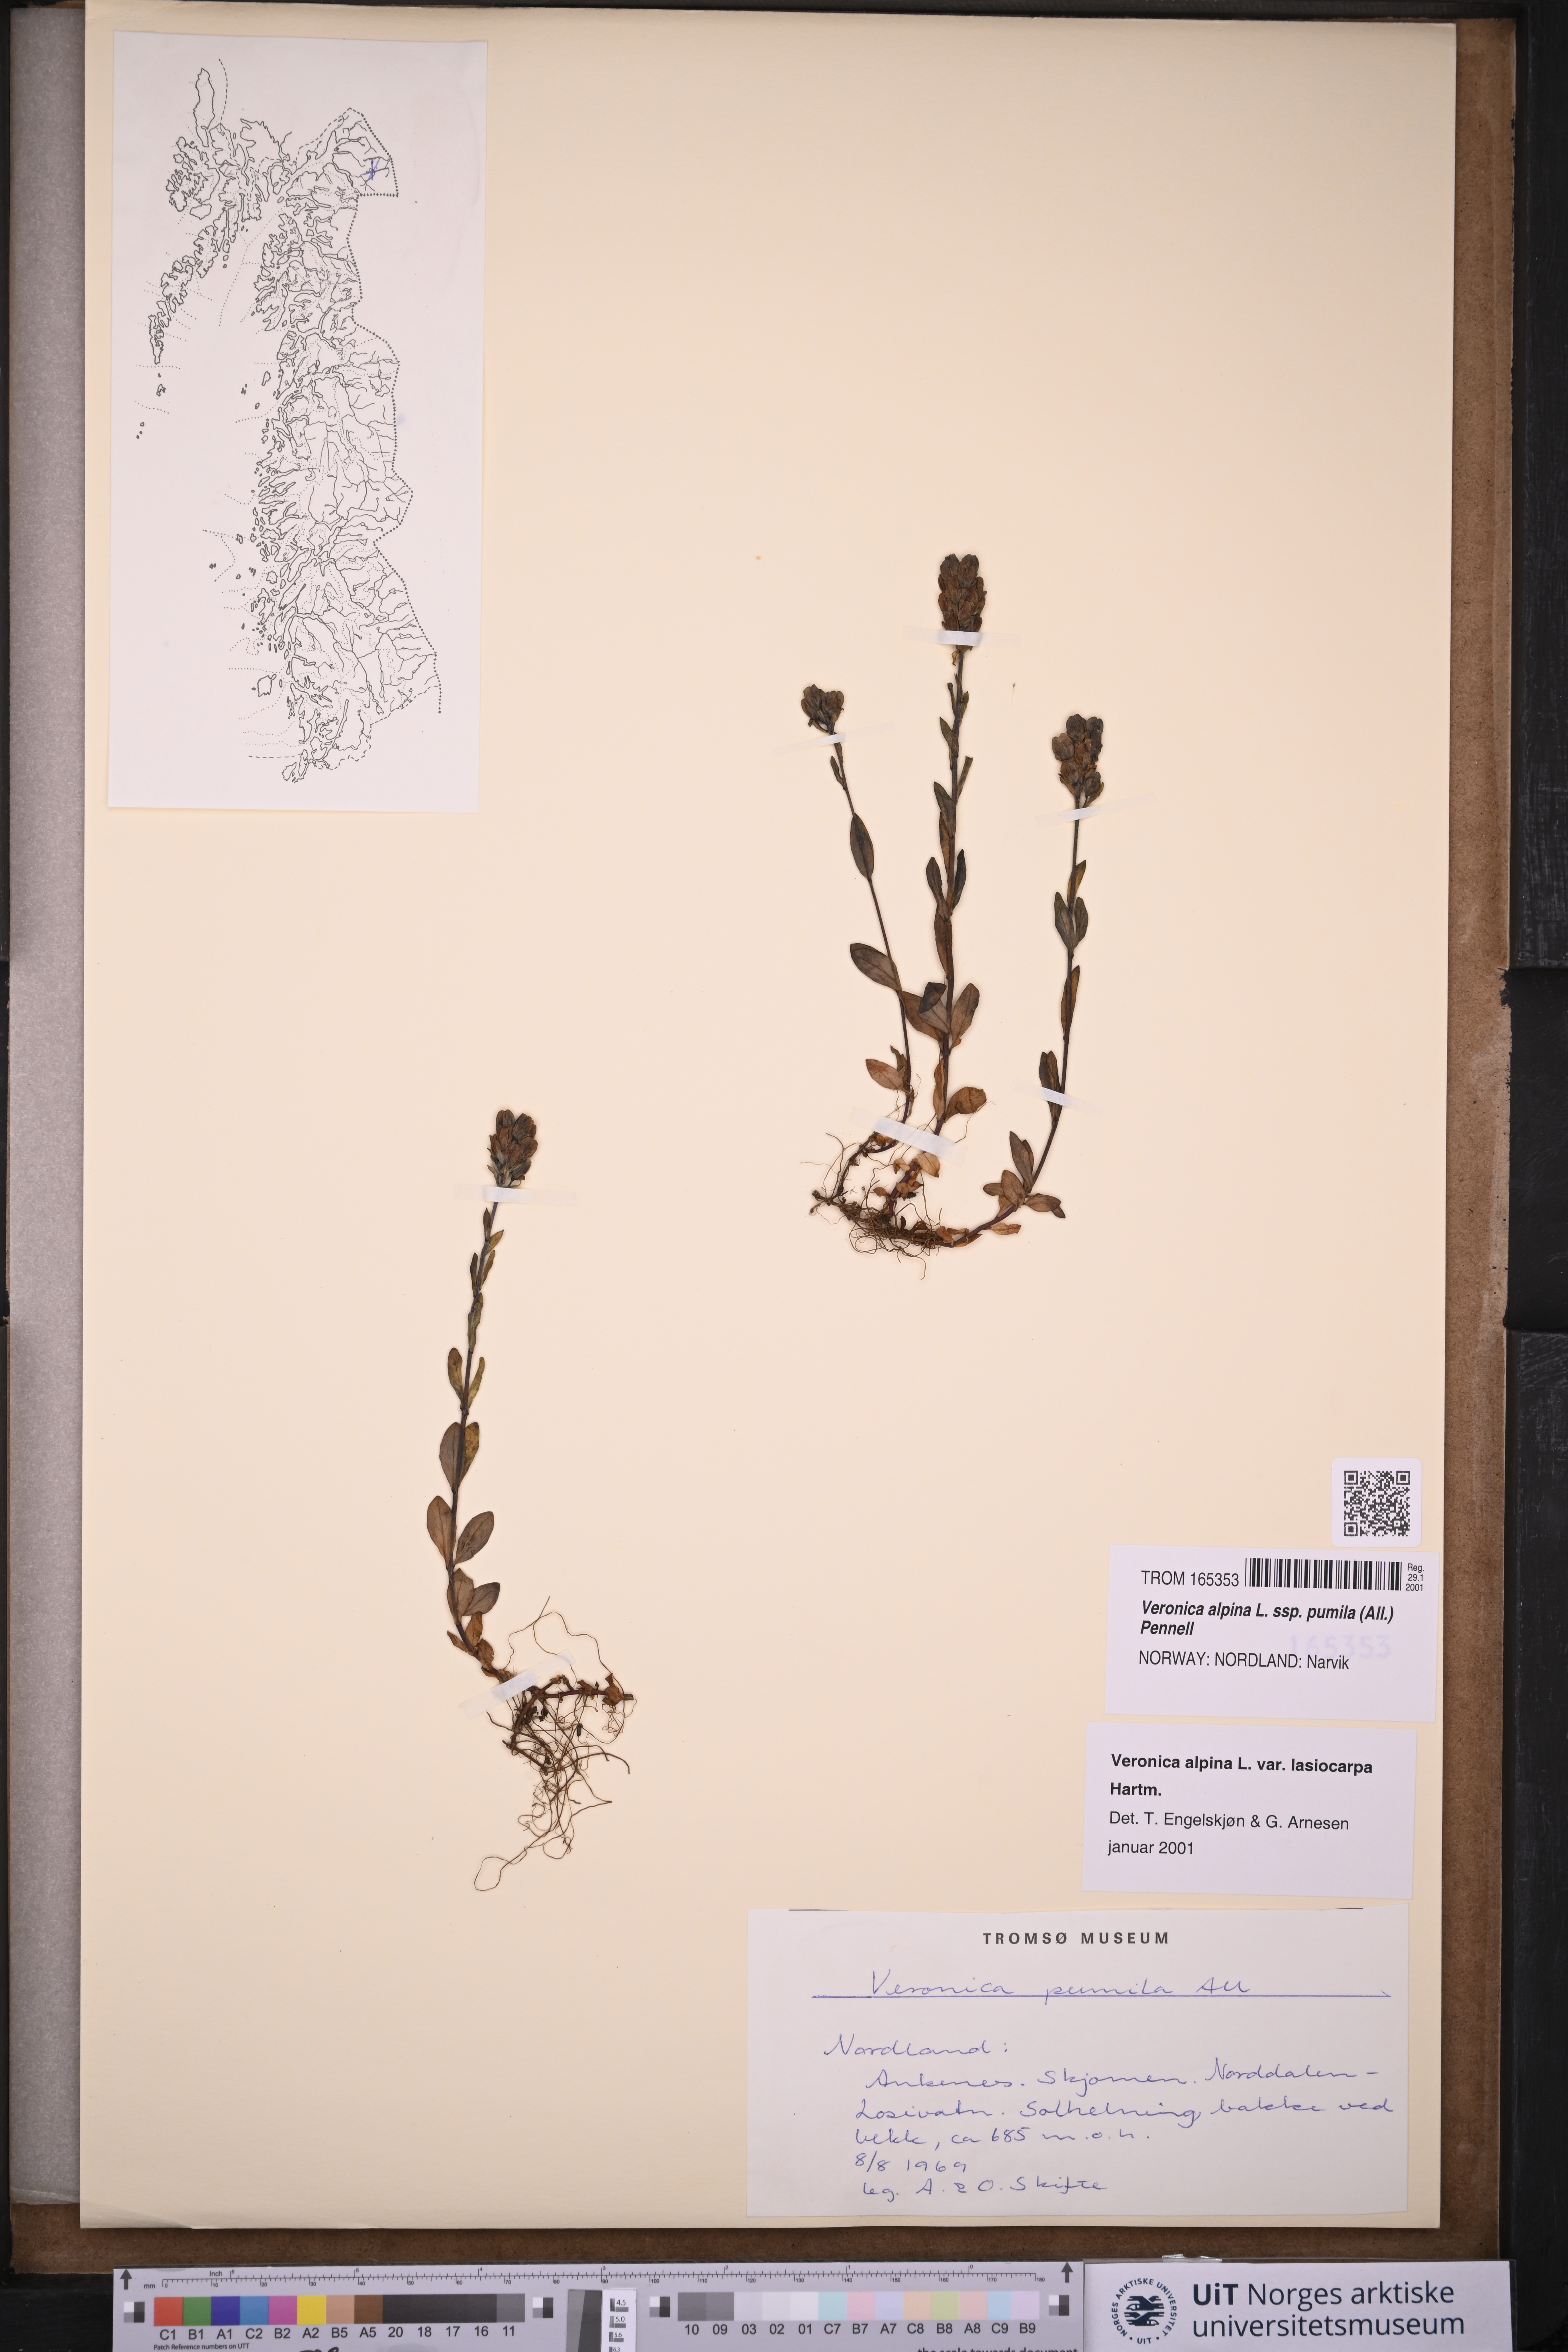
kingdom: Plantae
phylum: Tracheophyta
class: Magnoliopsida
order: Lamiales
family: Plantaginaceae
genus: Veronica
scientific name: Veronica alpina
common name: Alpine speedwell
